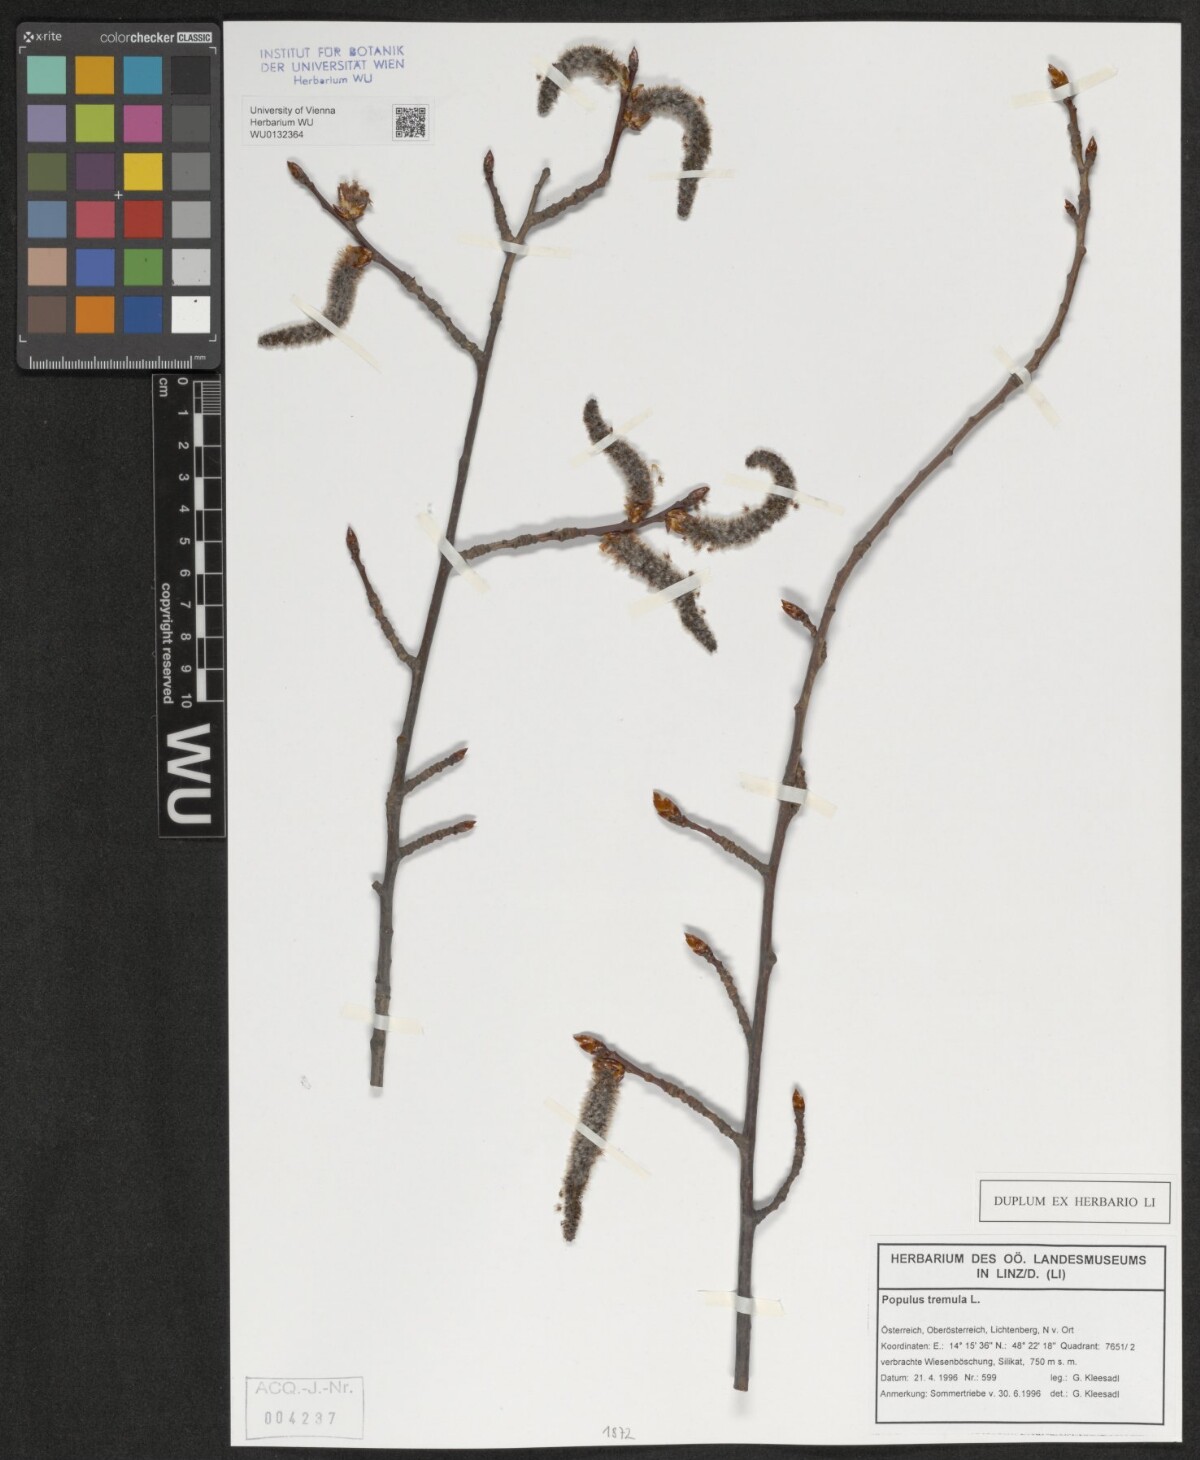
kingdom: Plantae
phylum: Tracheophyta
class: Magnoliopsida
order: Malpighiales
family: Salicaceae
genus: Populus
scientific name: Populus tremula
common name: European aspen
